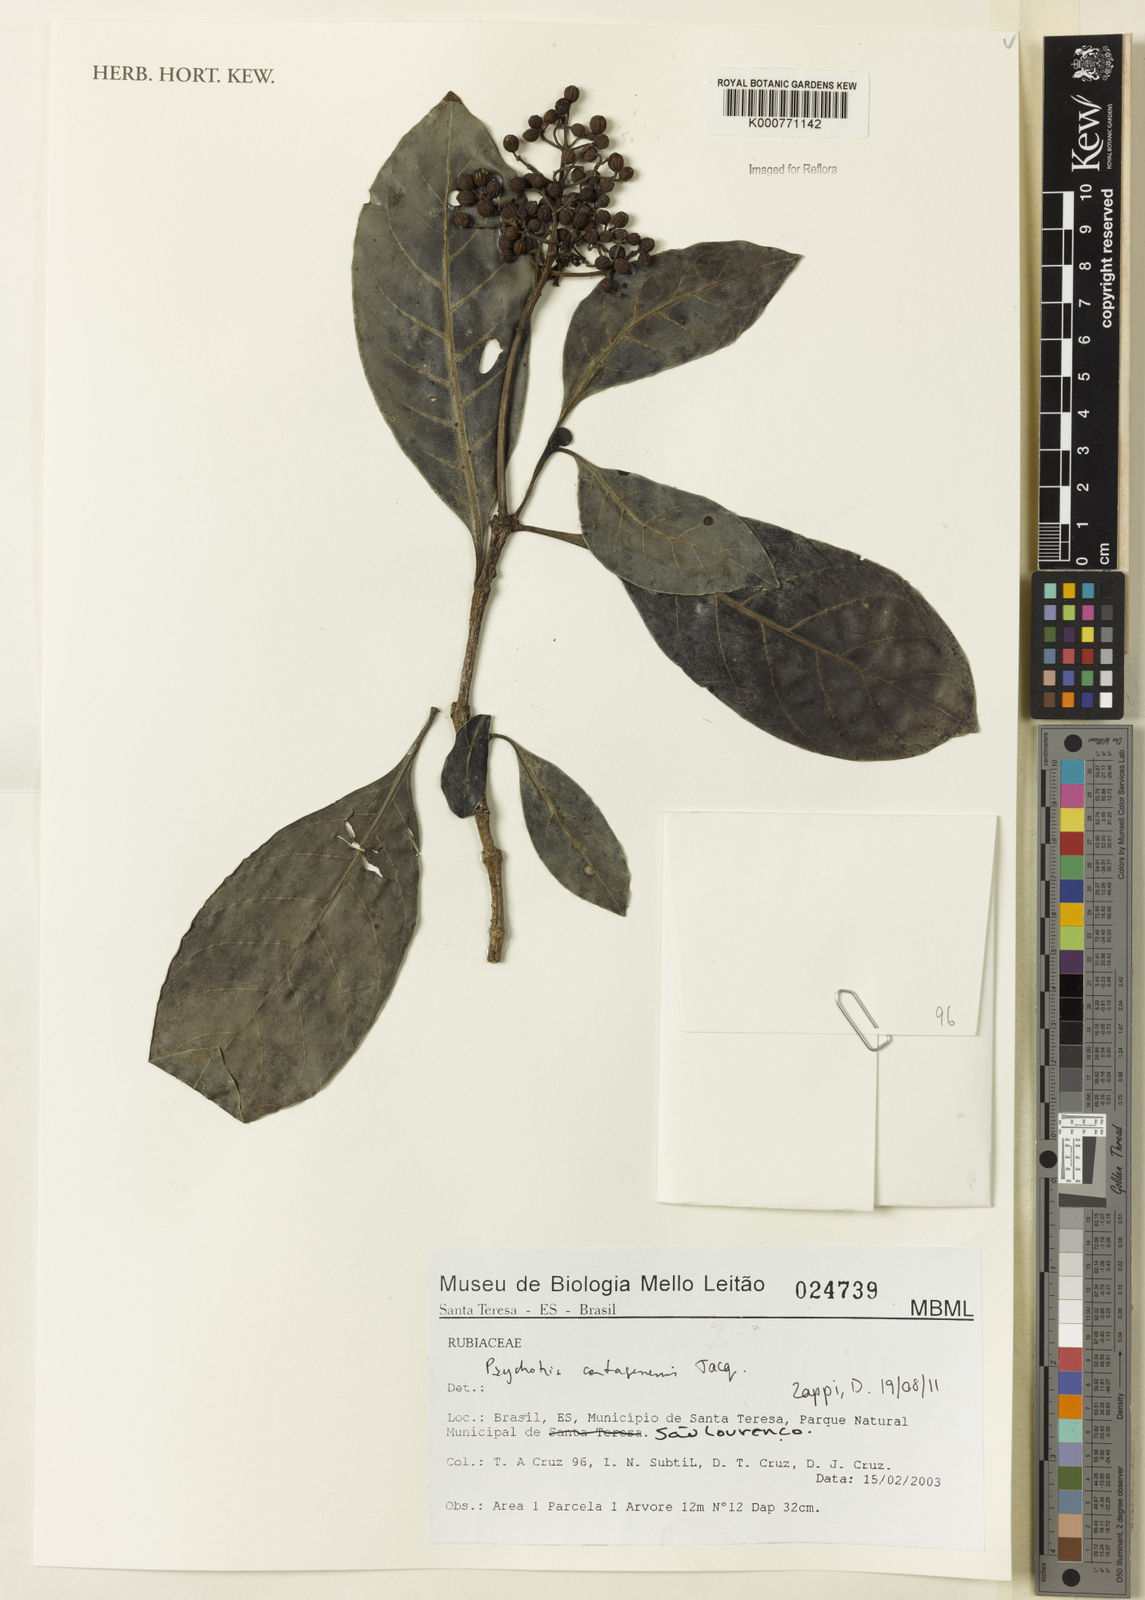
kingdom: Plantae
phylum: Tracheophyta
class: Magnoliopsida
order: Gentianales
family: Rubiaceae
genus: Psychotria
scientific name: Psychotria carthagenensis
